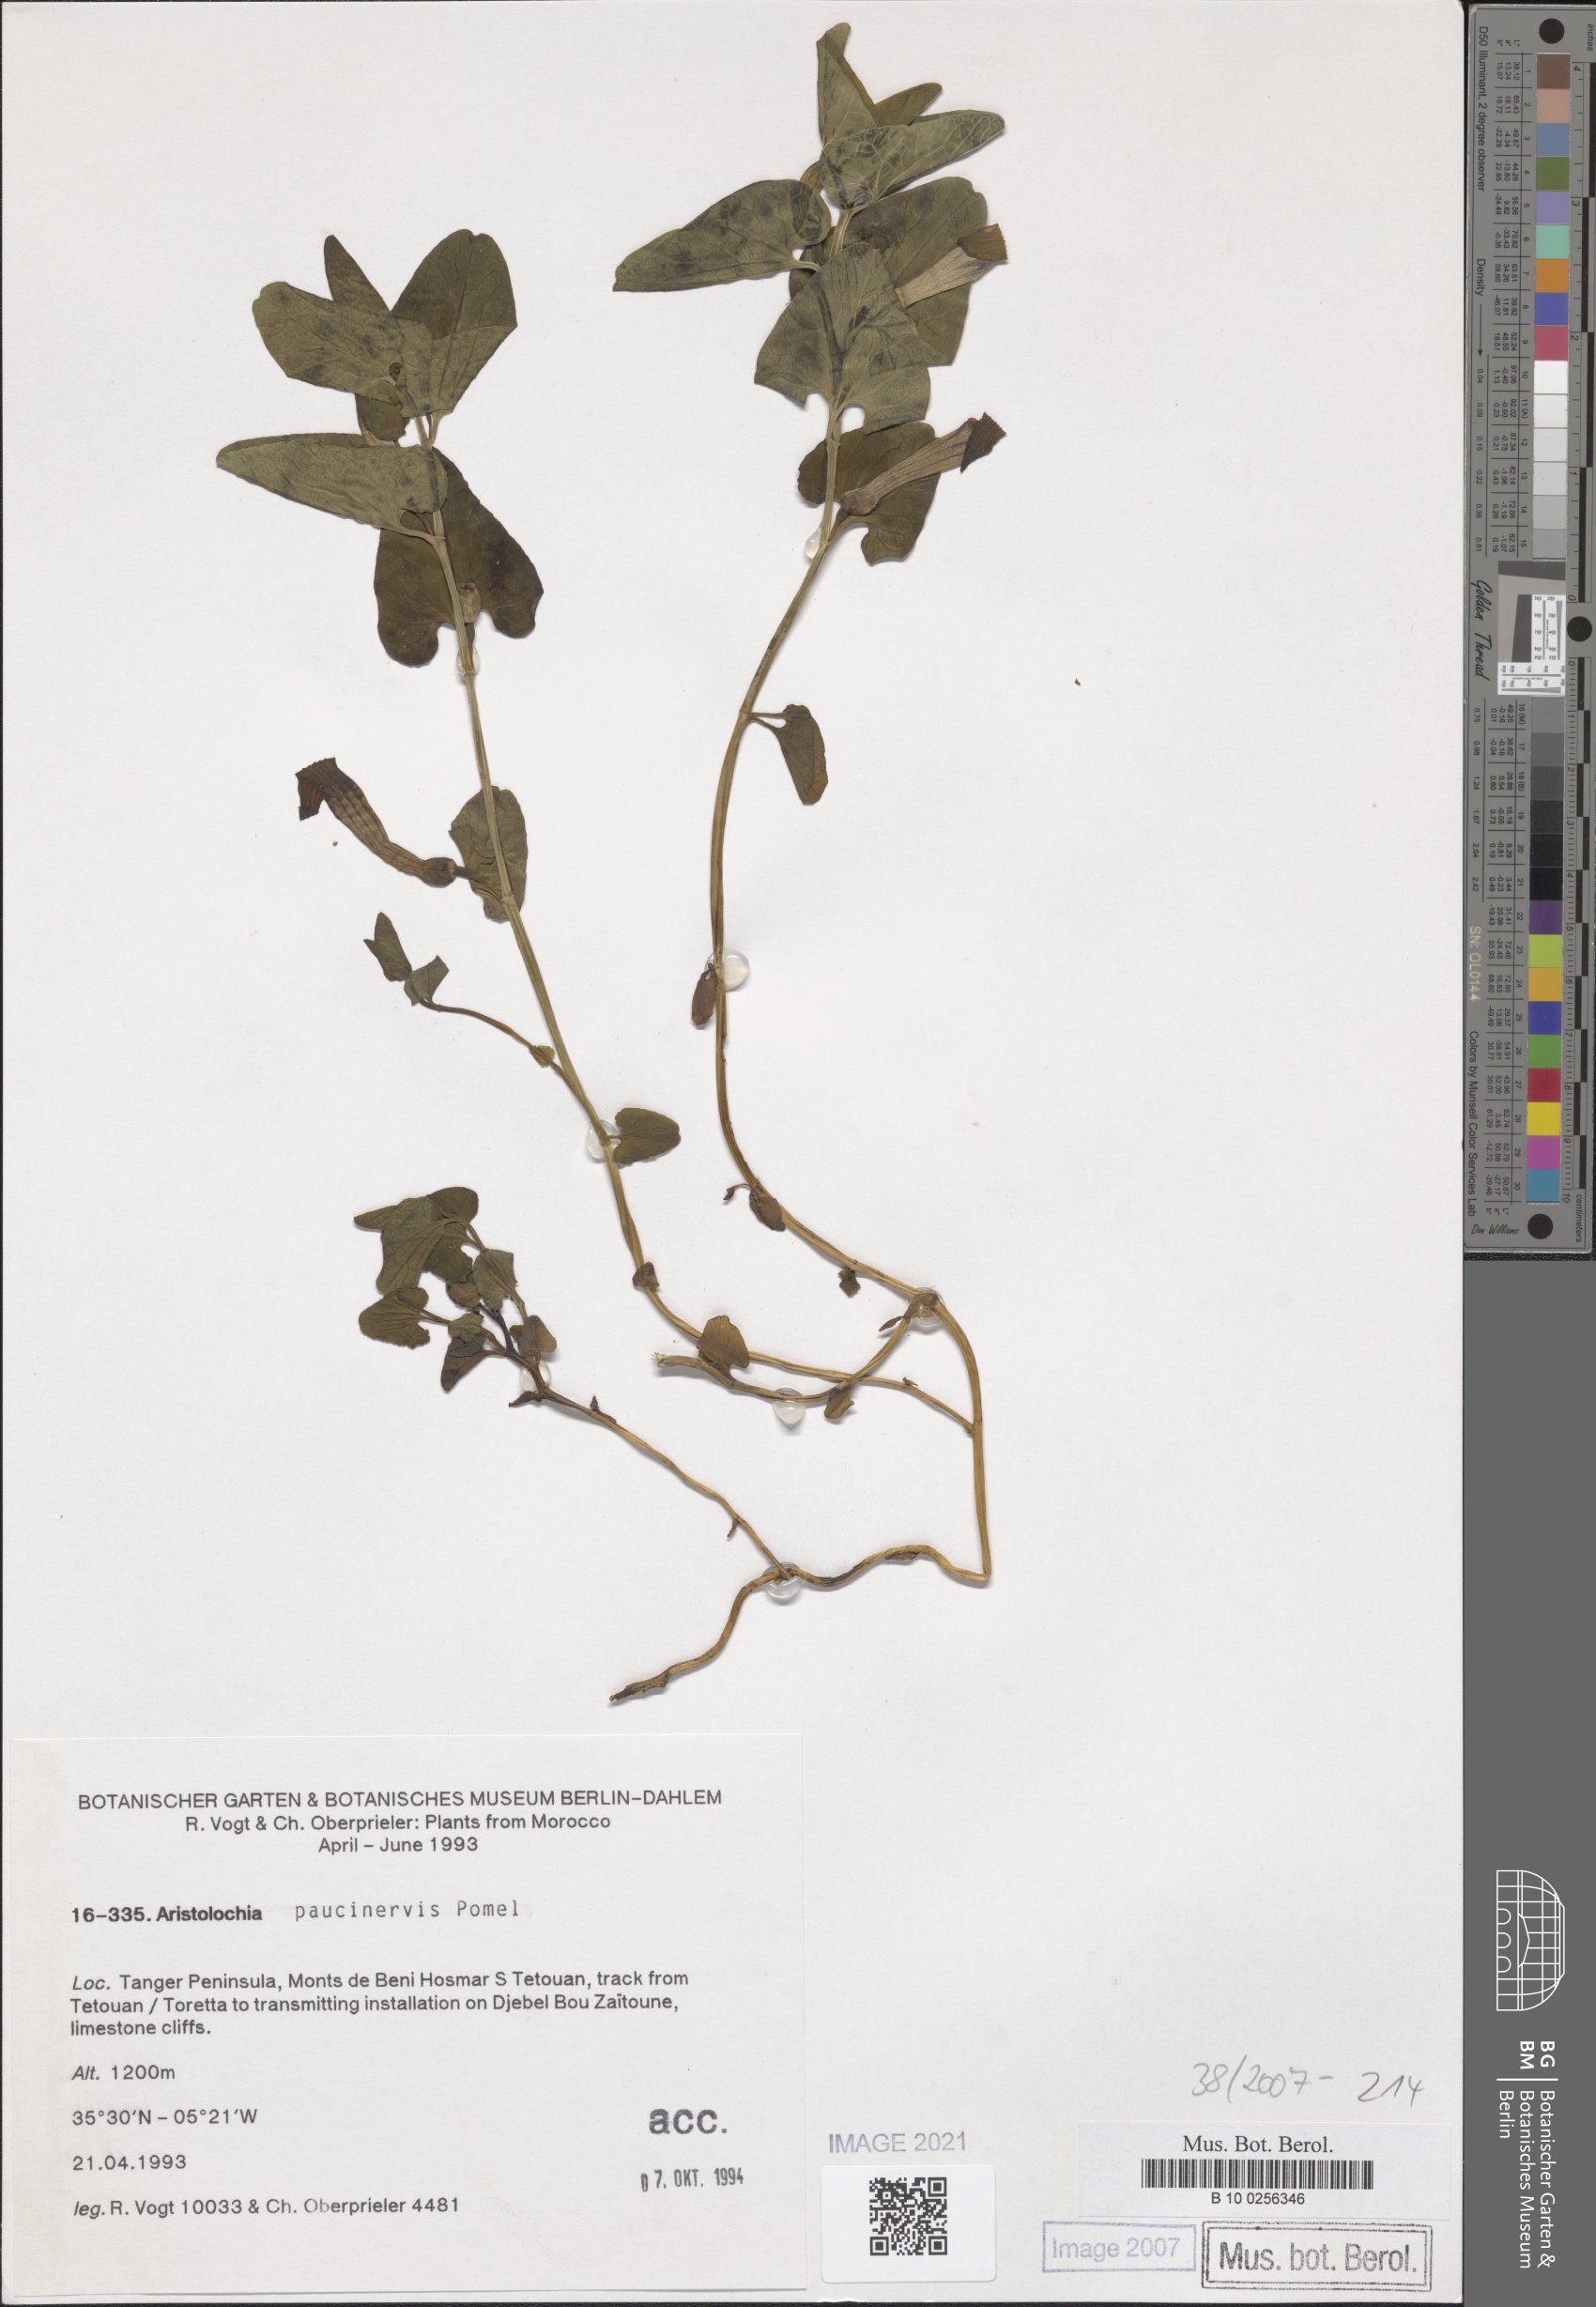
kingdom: Plantae
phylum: Tracheophyta
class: Magnoliopsida
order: Piperales
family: Aristolochiaceae
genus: Aristolochia
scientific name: Aristolochia paucinervis
